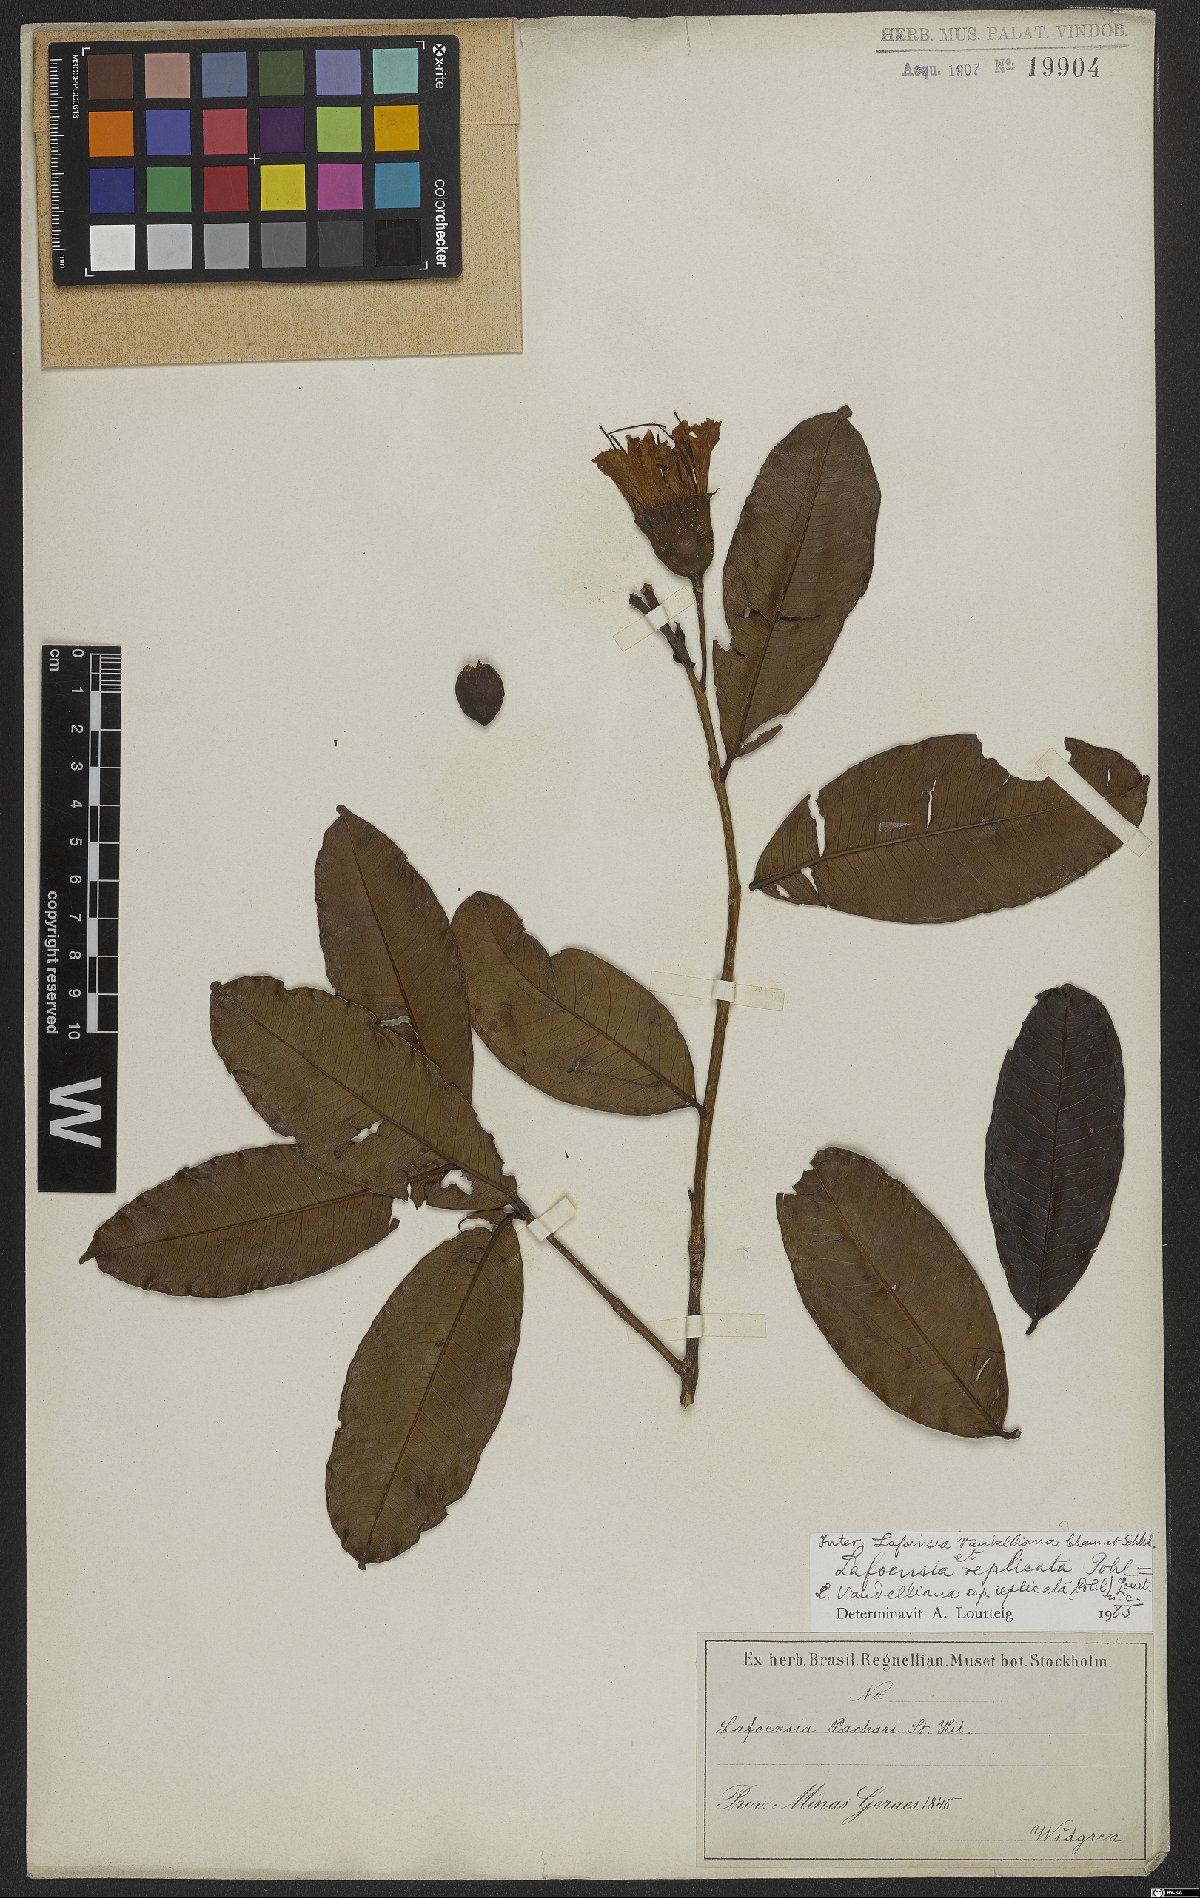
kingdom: Plantae
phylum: Tracheophyta
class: Magnoliopsida
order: Myrtales
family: Lythraceae
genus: Lafoensia
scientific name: Lafoensia vandelliana
